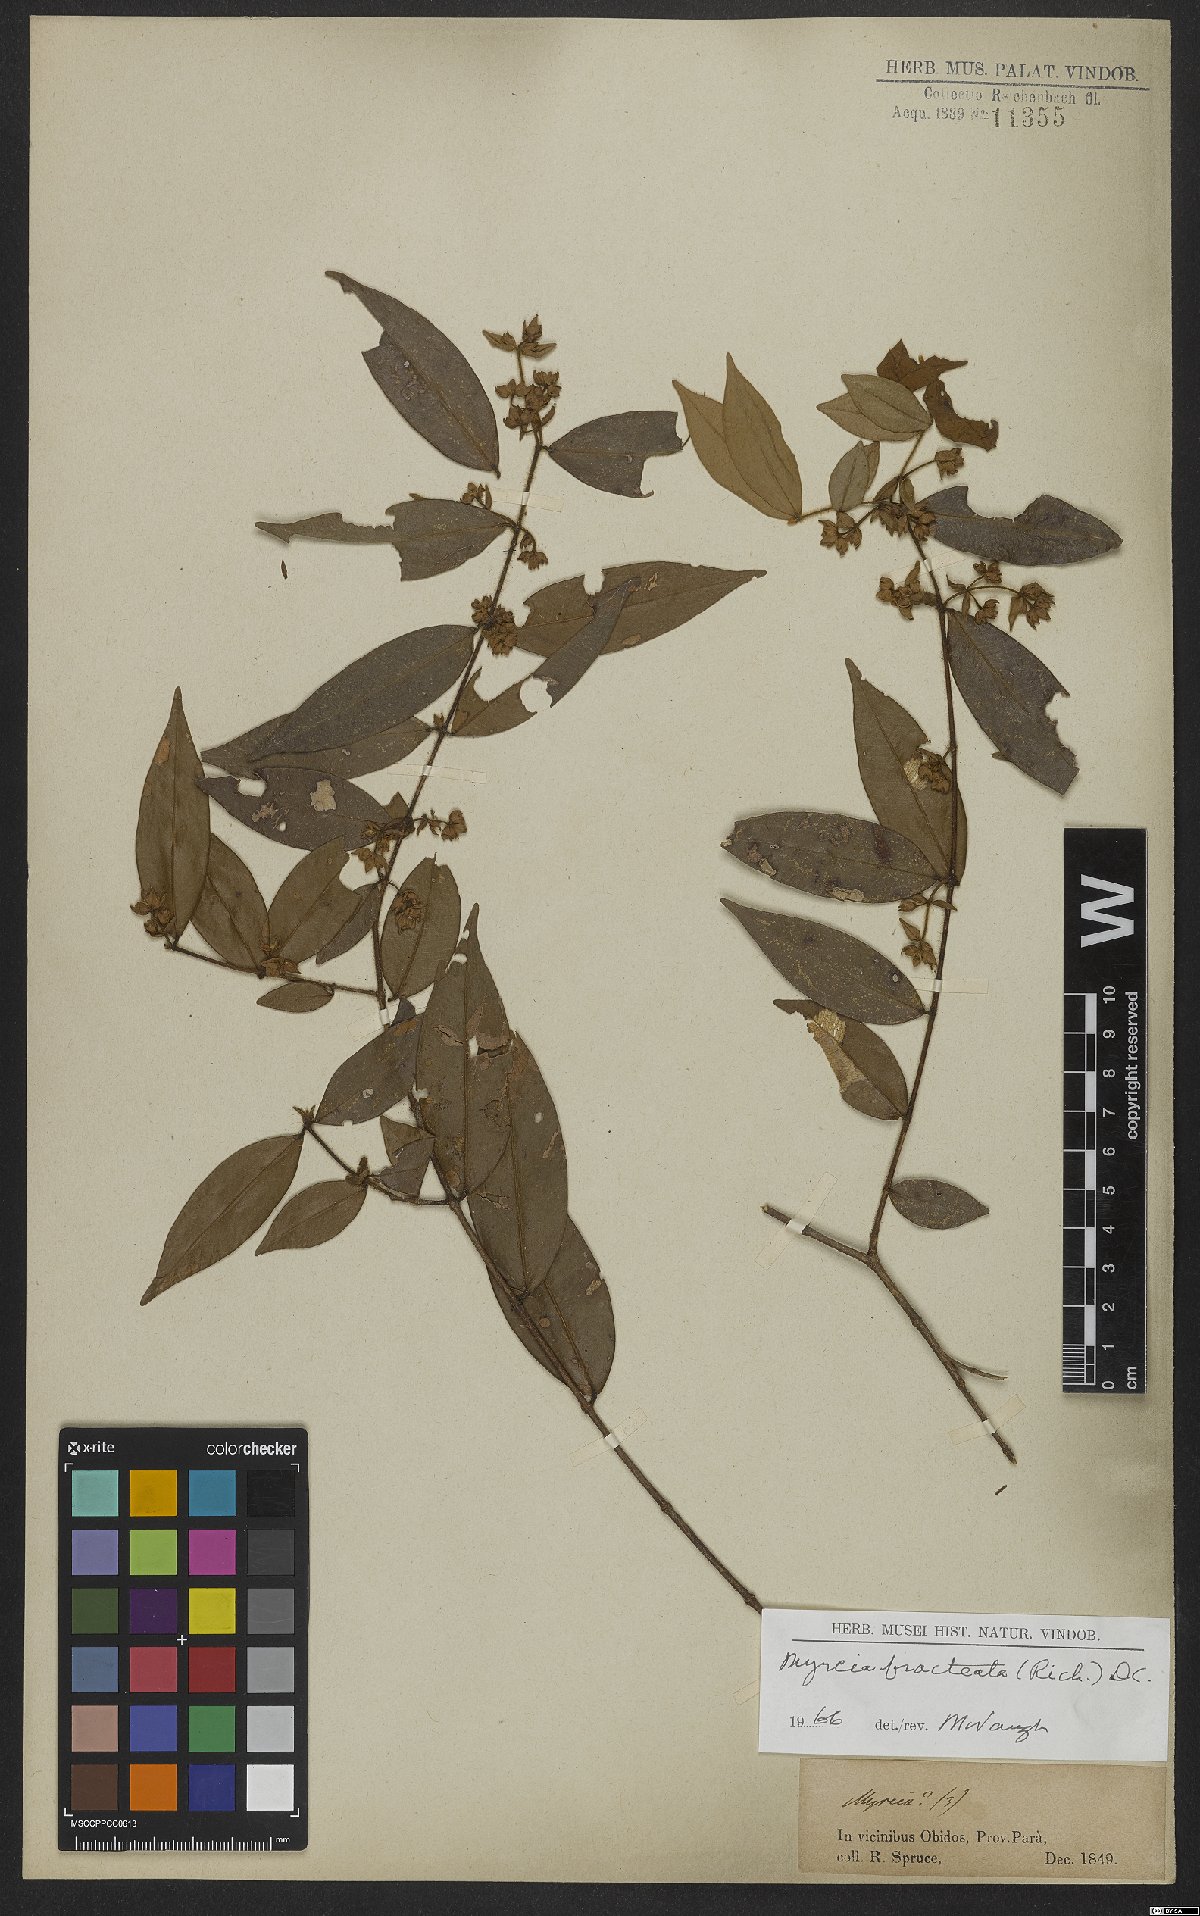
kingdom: Plantae
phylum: Tracheophyta
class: Magnoliopsida
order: Myrtales
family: Myrtaceae
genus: Myrcia
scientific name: Myrcia bracteata
